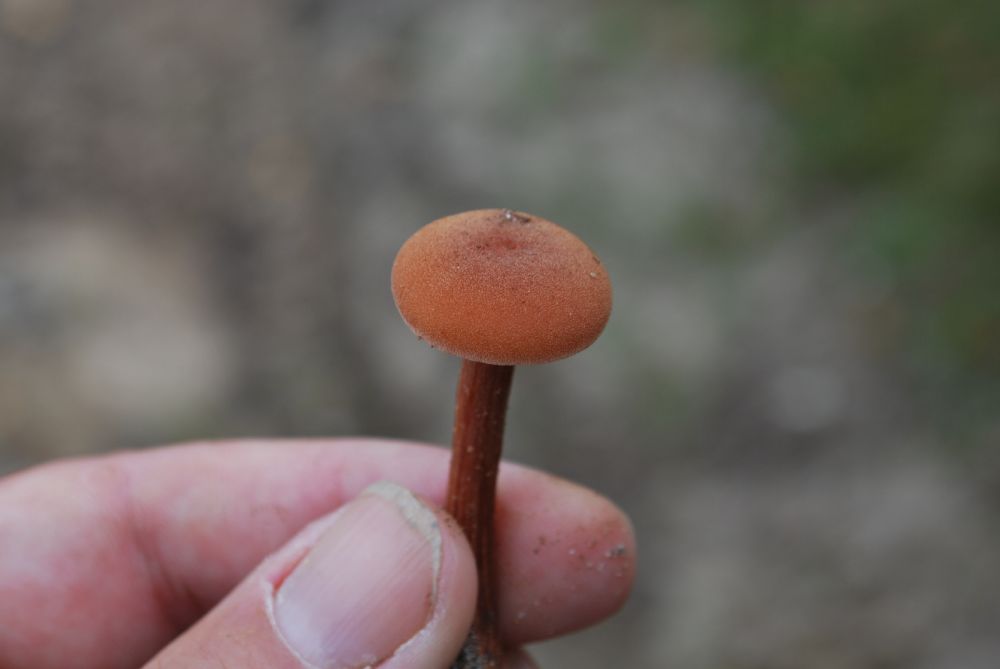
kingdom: Fungi
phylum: Basidiomycota
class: Agaricomycetes
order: Agaricales
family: Hydnangiaceae
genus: Laccaria
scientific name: Laccaria proxima
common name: stor ametysthat
